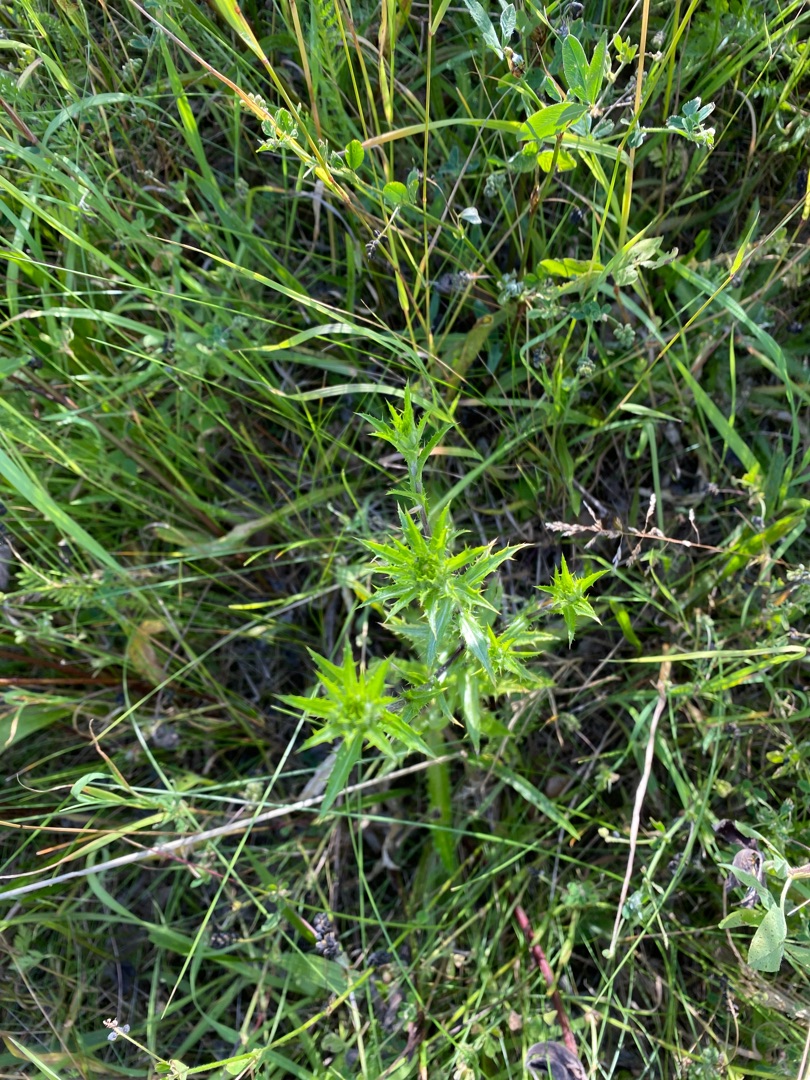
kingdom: Plantae
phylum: Tracheophyta
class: Magnoliopsida
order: Asterales
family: Asteraceae
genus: Carlina
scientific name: Carlina vulgaris
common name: Bakketidsel
